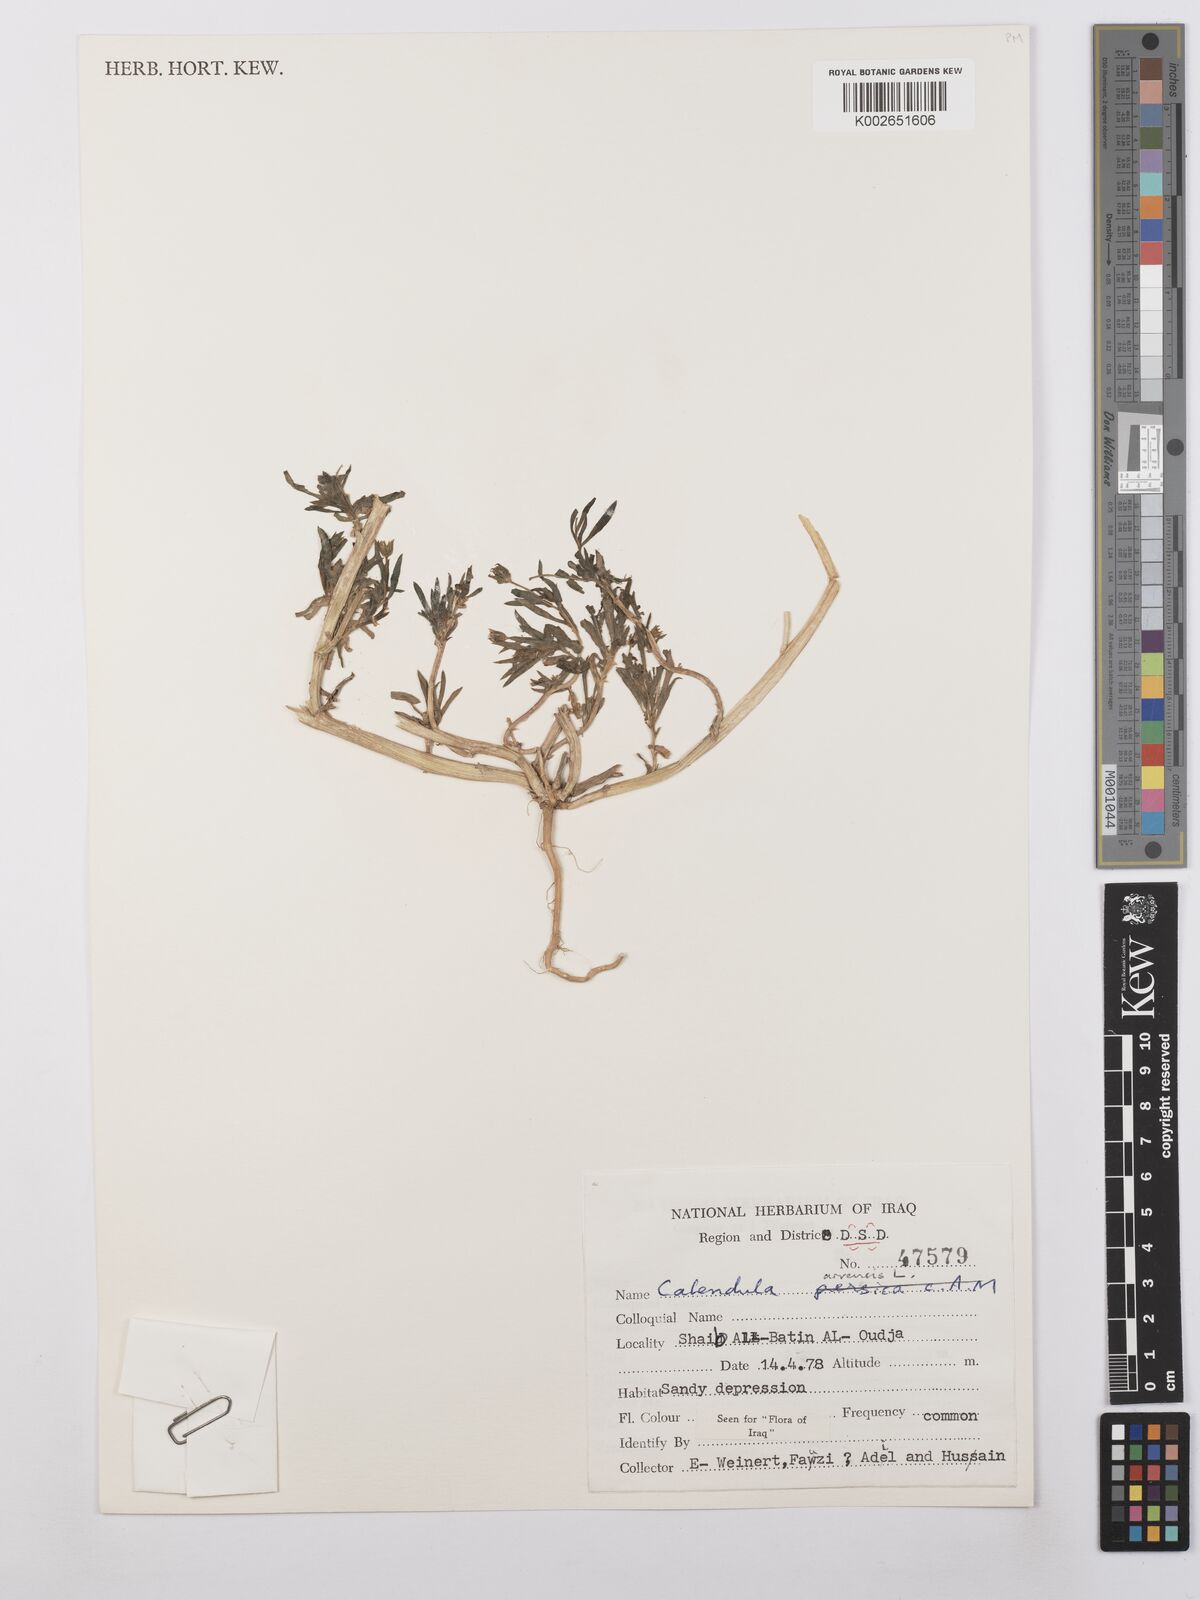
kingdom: Plantae
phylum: Tracheophyta
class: Magnoliopsida
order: Asterales
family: Asteraceae
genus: Calendula
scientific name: Calendula arvensis
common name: Field marigold
